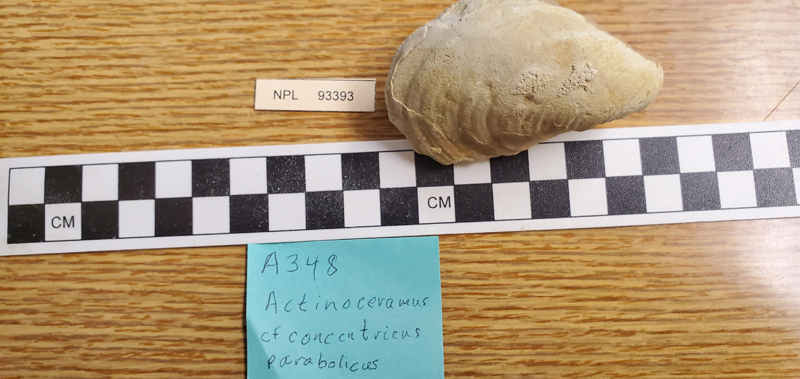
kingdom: Animalia
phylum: Mollusca
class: Bivalvia
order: Myalinida
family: Inoceramidae
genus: Actinoceramus
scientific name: Actinoceramus
